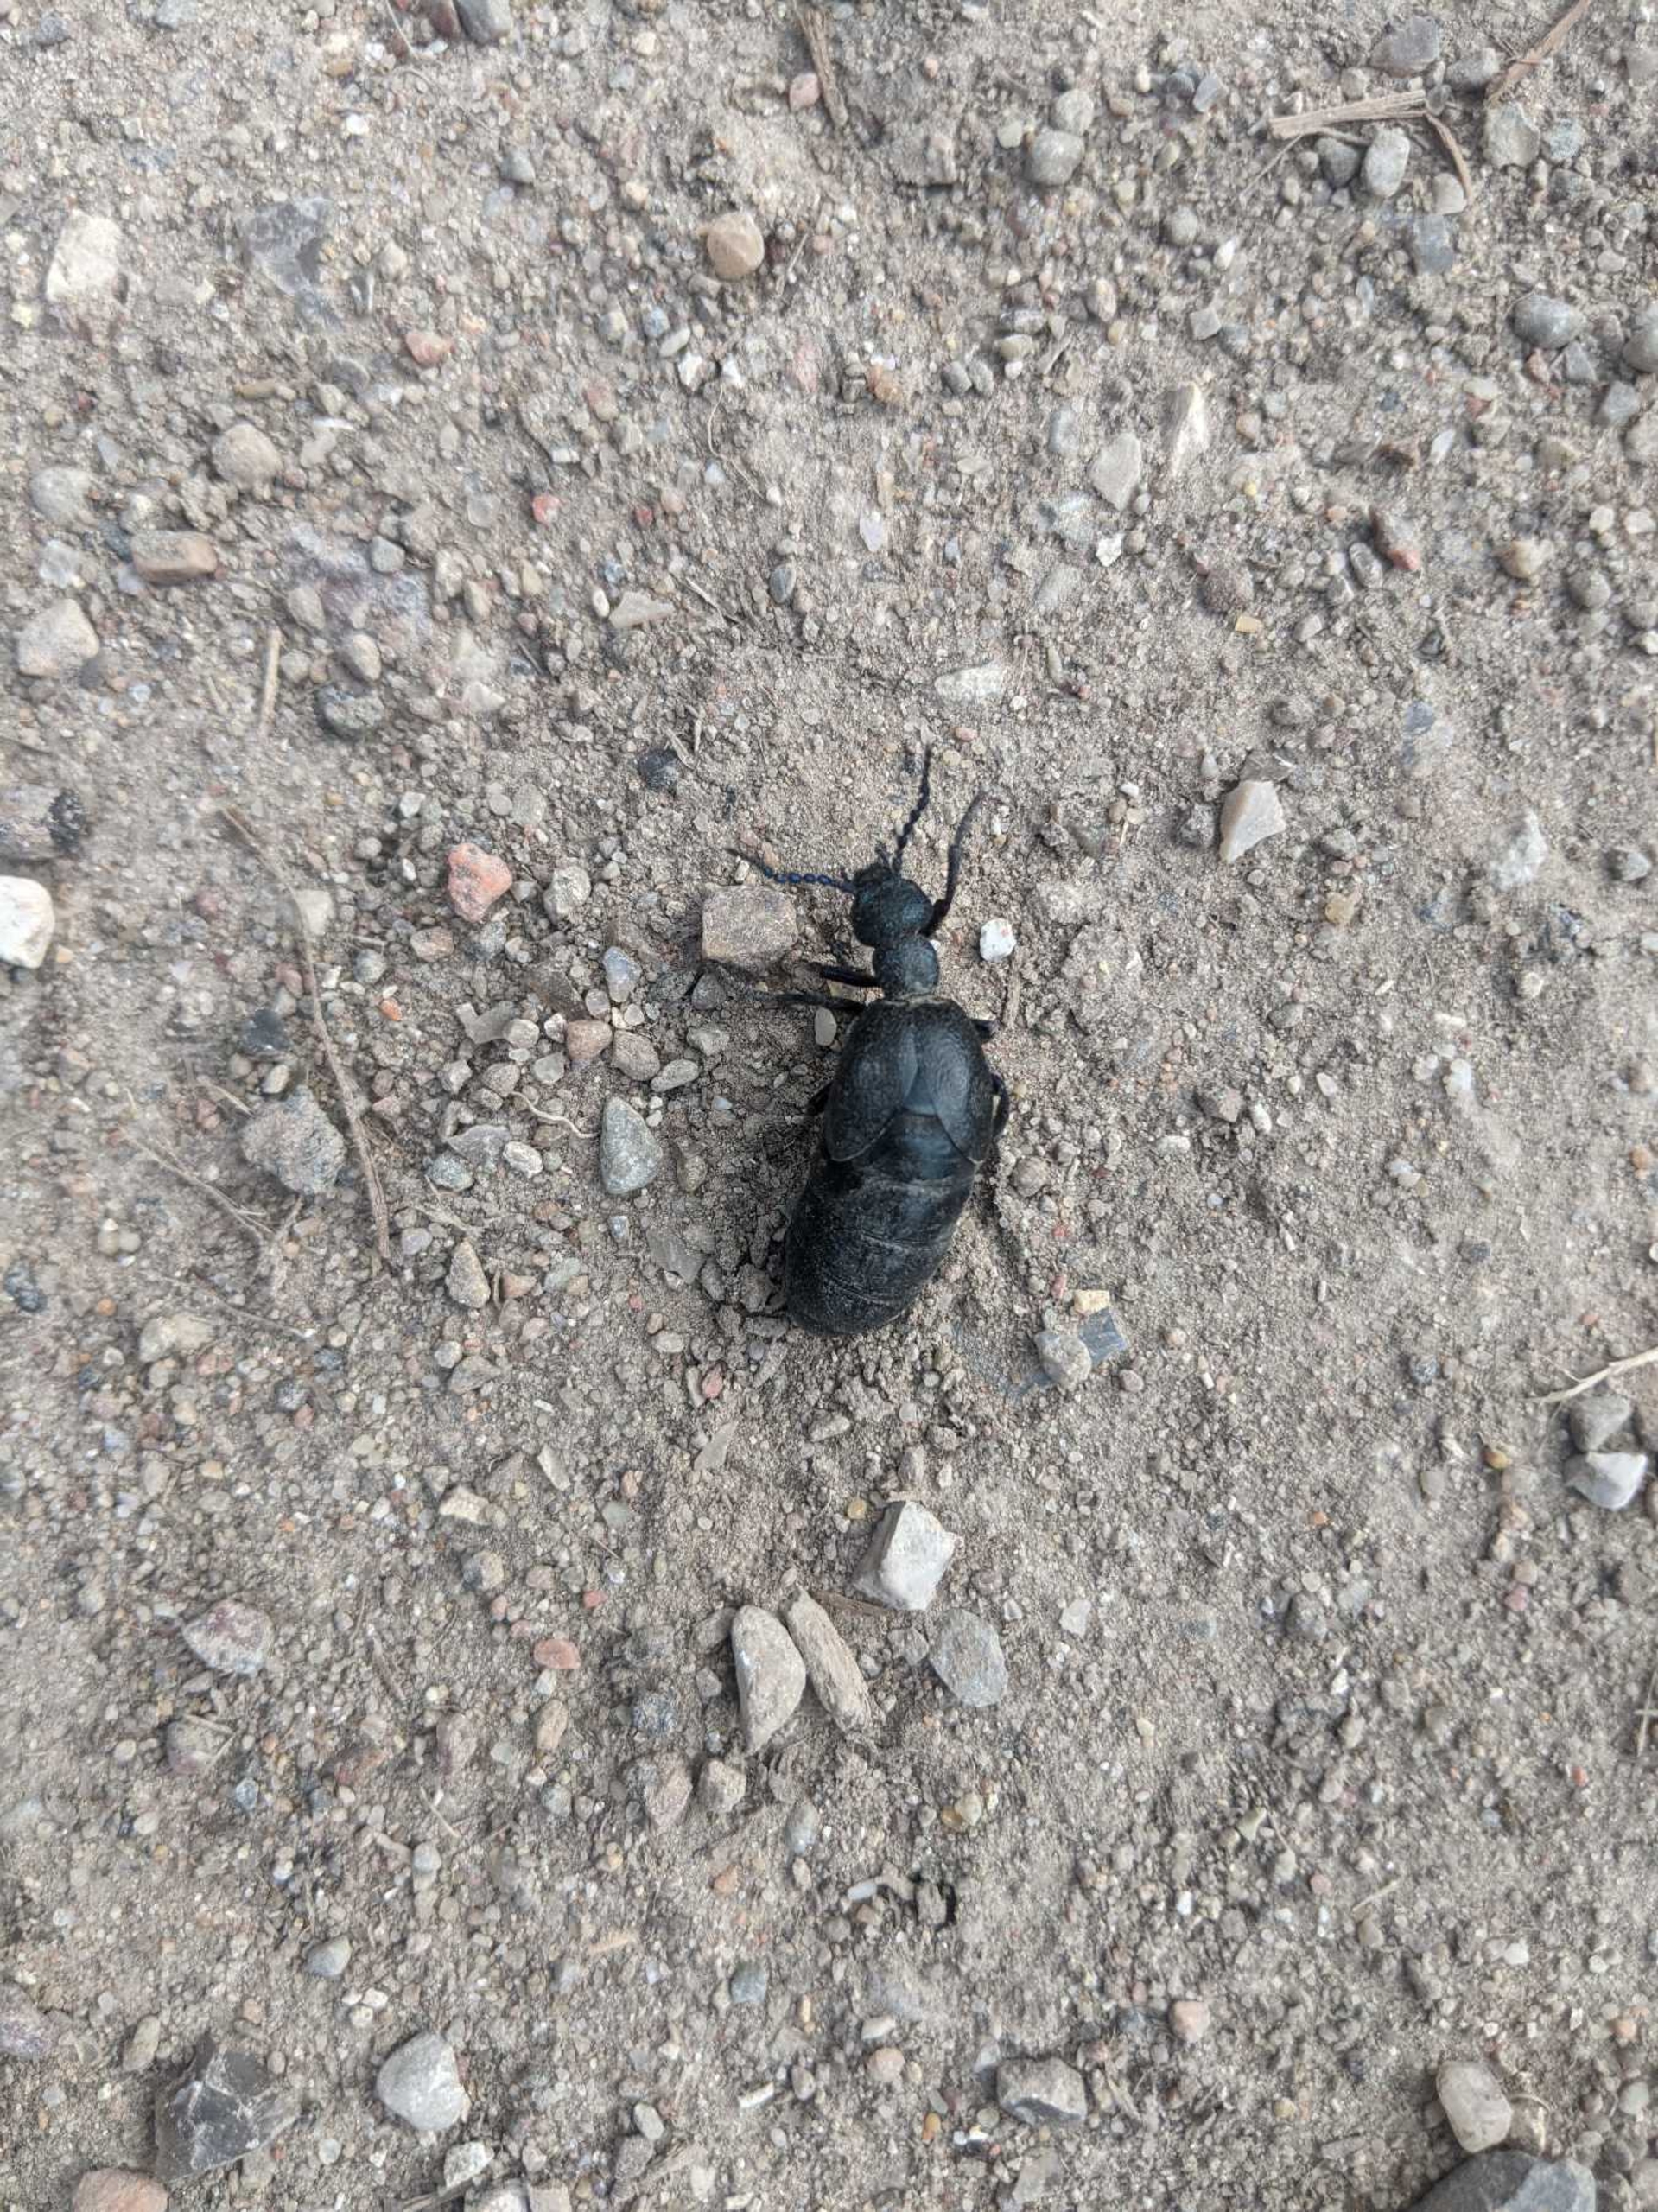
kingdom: Animalia
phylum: Arthropoda
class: Insecta
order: Coleoptera
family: Meloidae
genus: Meloe
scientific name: Meloe proscarabaeus
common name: Sort oliebille
